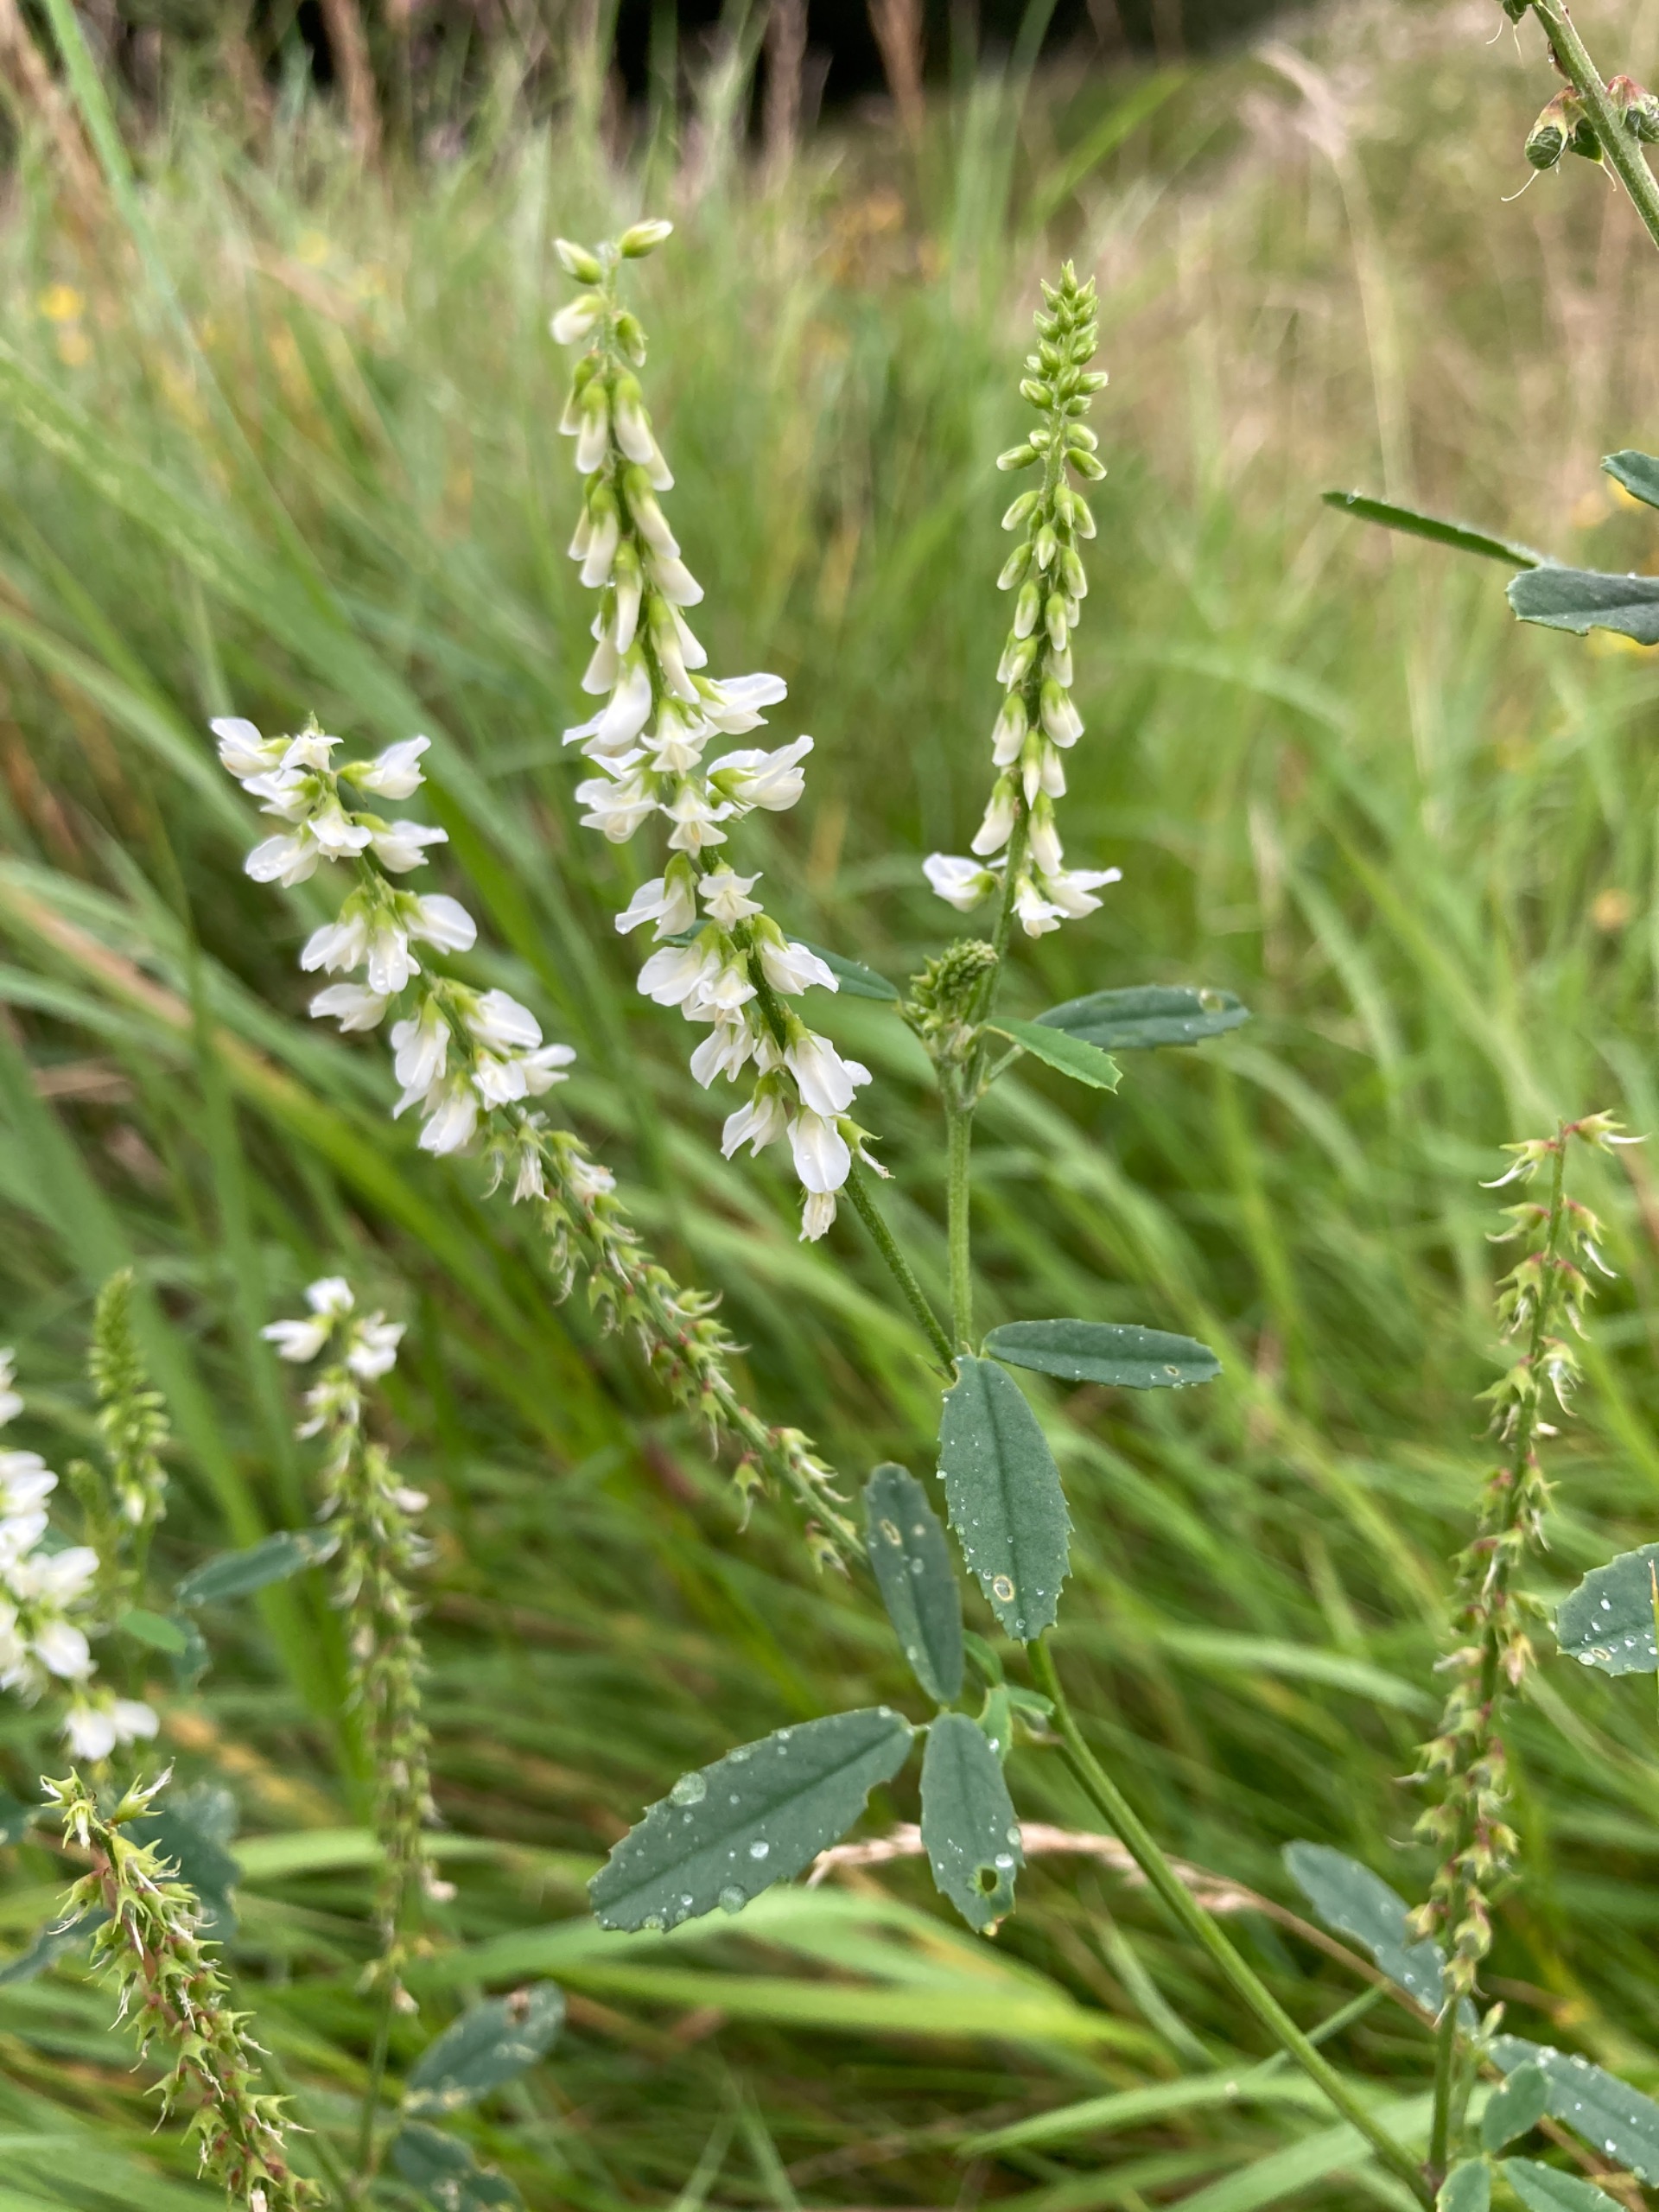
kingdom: Plantae
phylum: Tracheophyta
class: Magnoliopsida
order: Fabales
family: Fabaceae
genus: Melilotus
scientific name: Melilotus albus
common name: Hvid stenkløver
